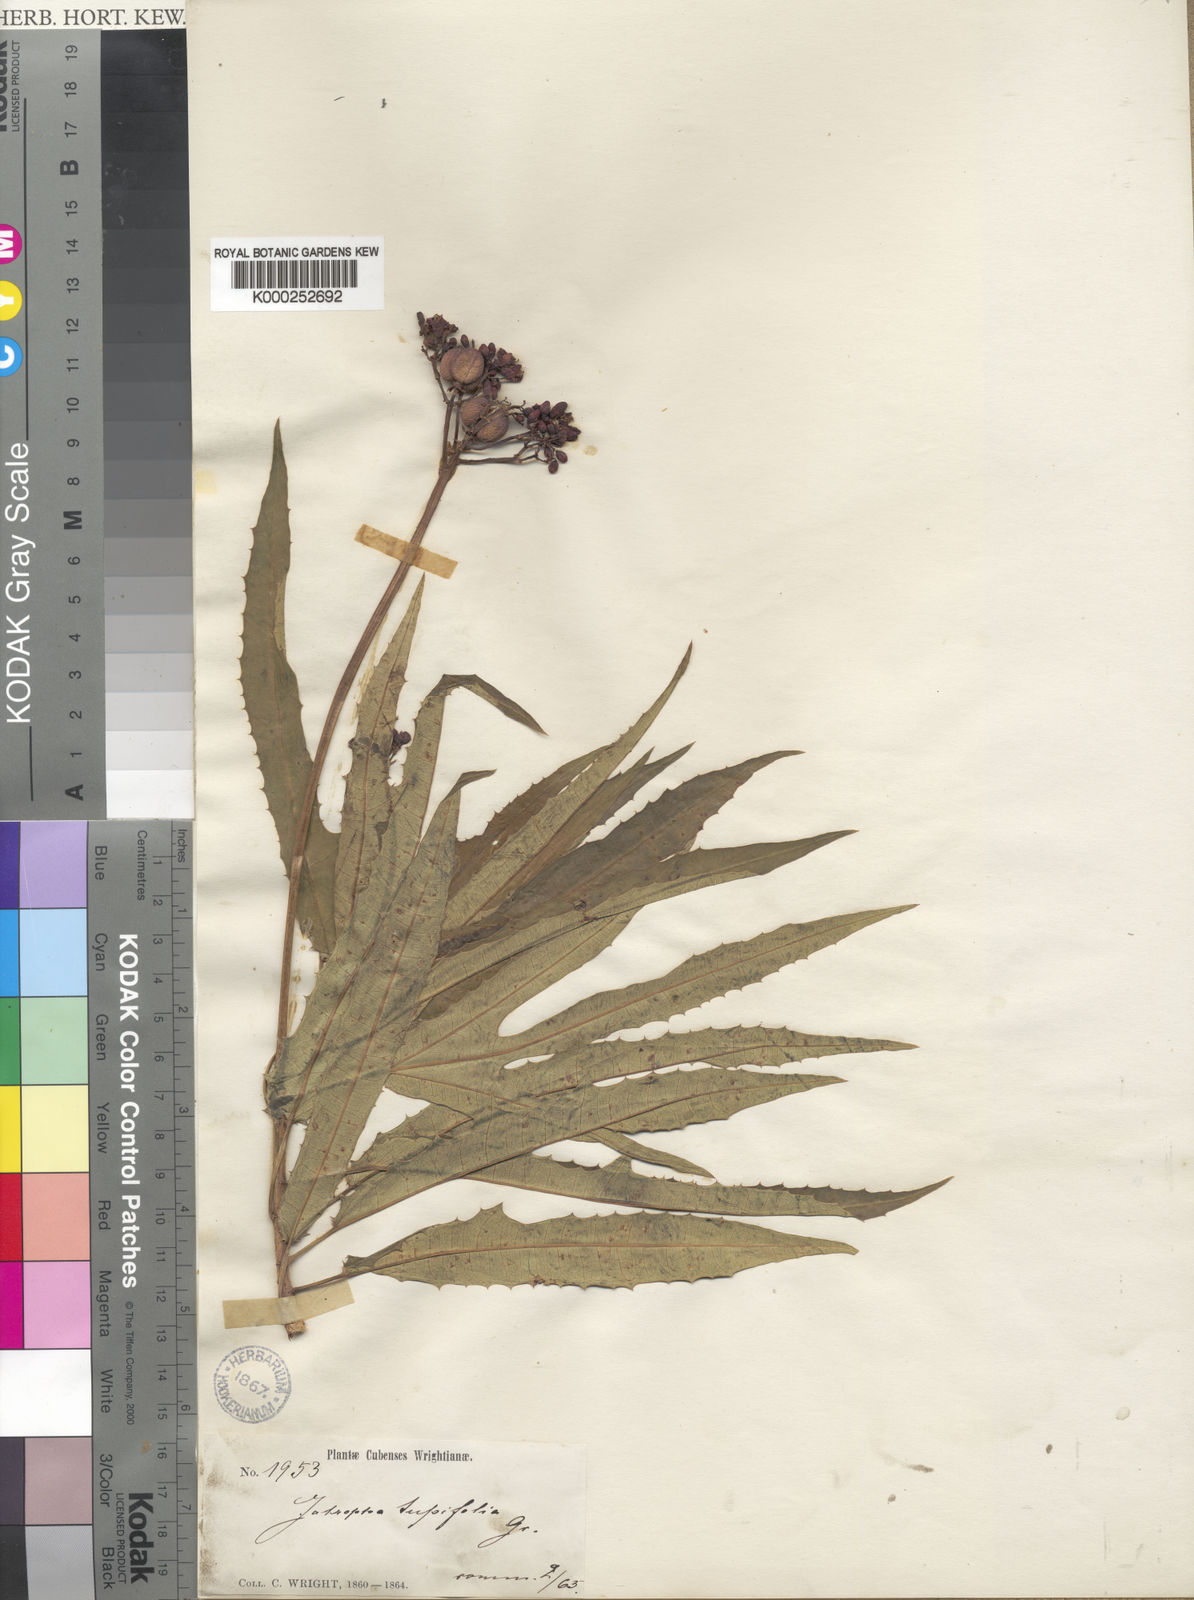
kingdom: Plantae
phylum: Tracheophyta
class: Magnoliopsida
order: Malpighiales
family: Euphorbiaceae
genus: Jatropha
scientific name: Jatropha tupifolia
